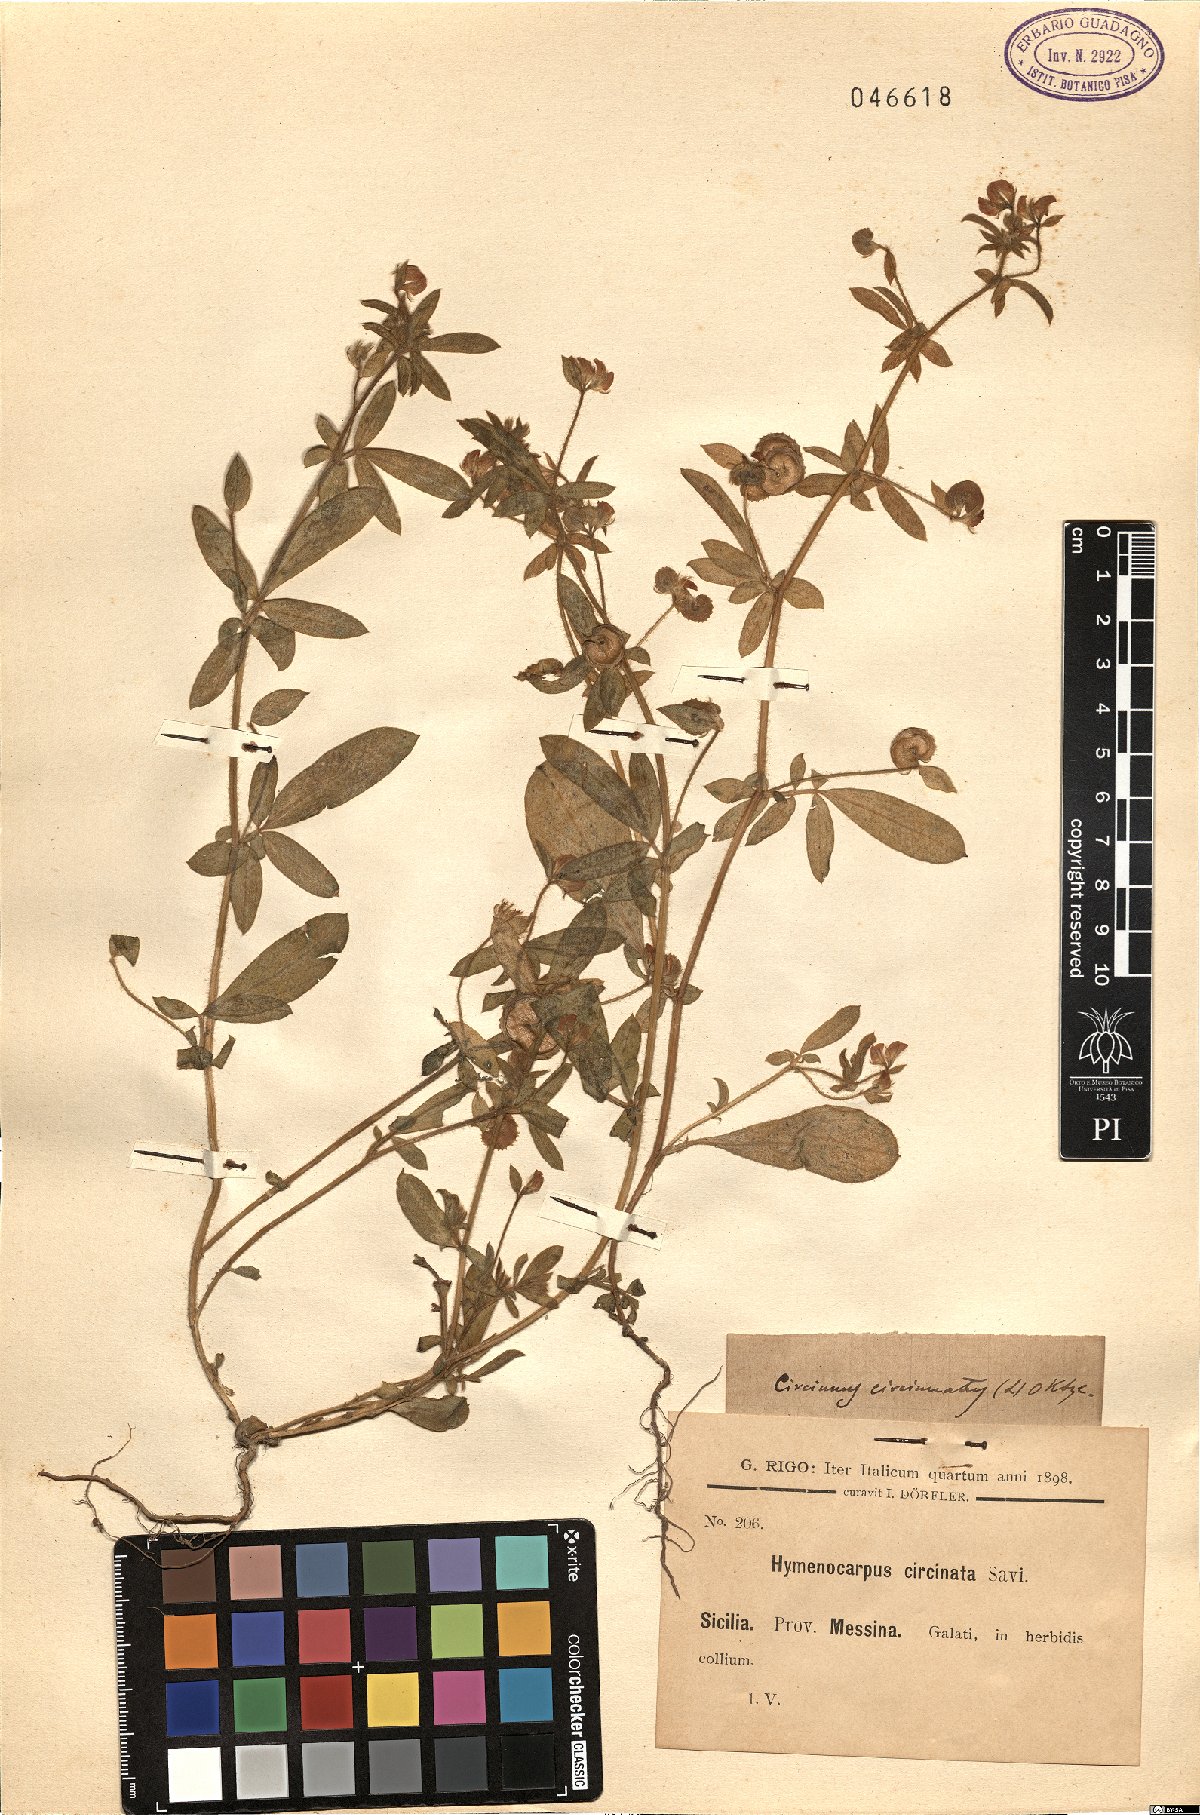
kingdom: Plantae
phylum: Tracheophyta
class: Magnoliopsida
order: Fabales
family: Fabaceae
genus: Anthyllis
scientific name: Anthyllis circinnata
